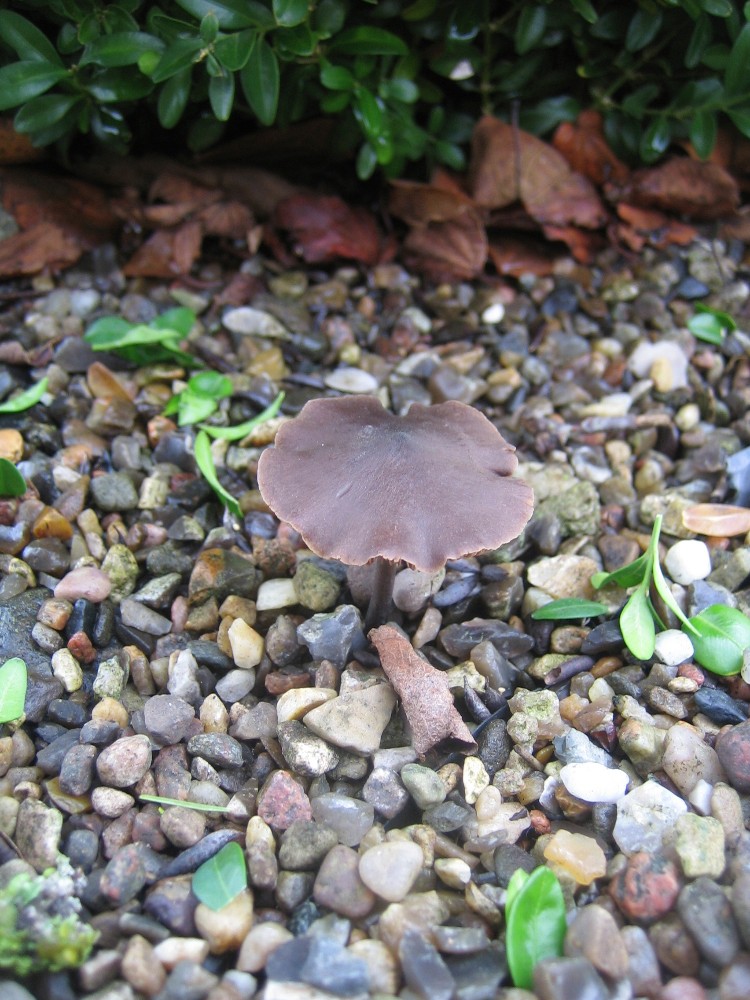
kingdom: Fungi
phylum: Basidiomycota
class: Agaricomycetes
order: Agaricales
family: Entolomataceae
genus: Entoloma
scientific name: Entoloma
